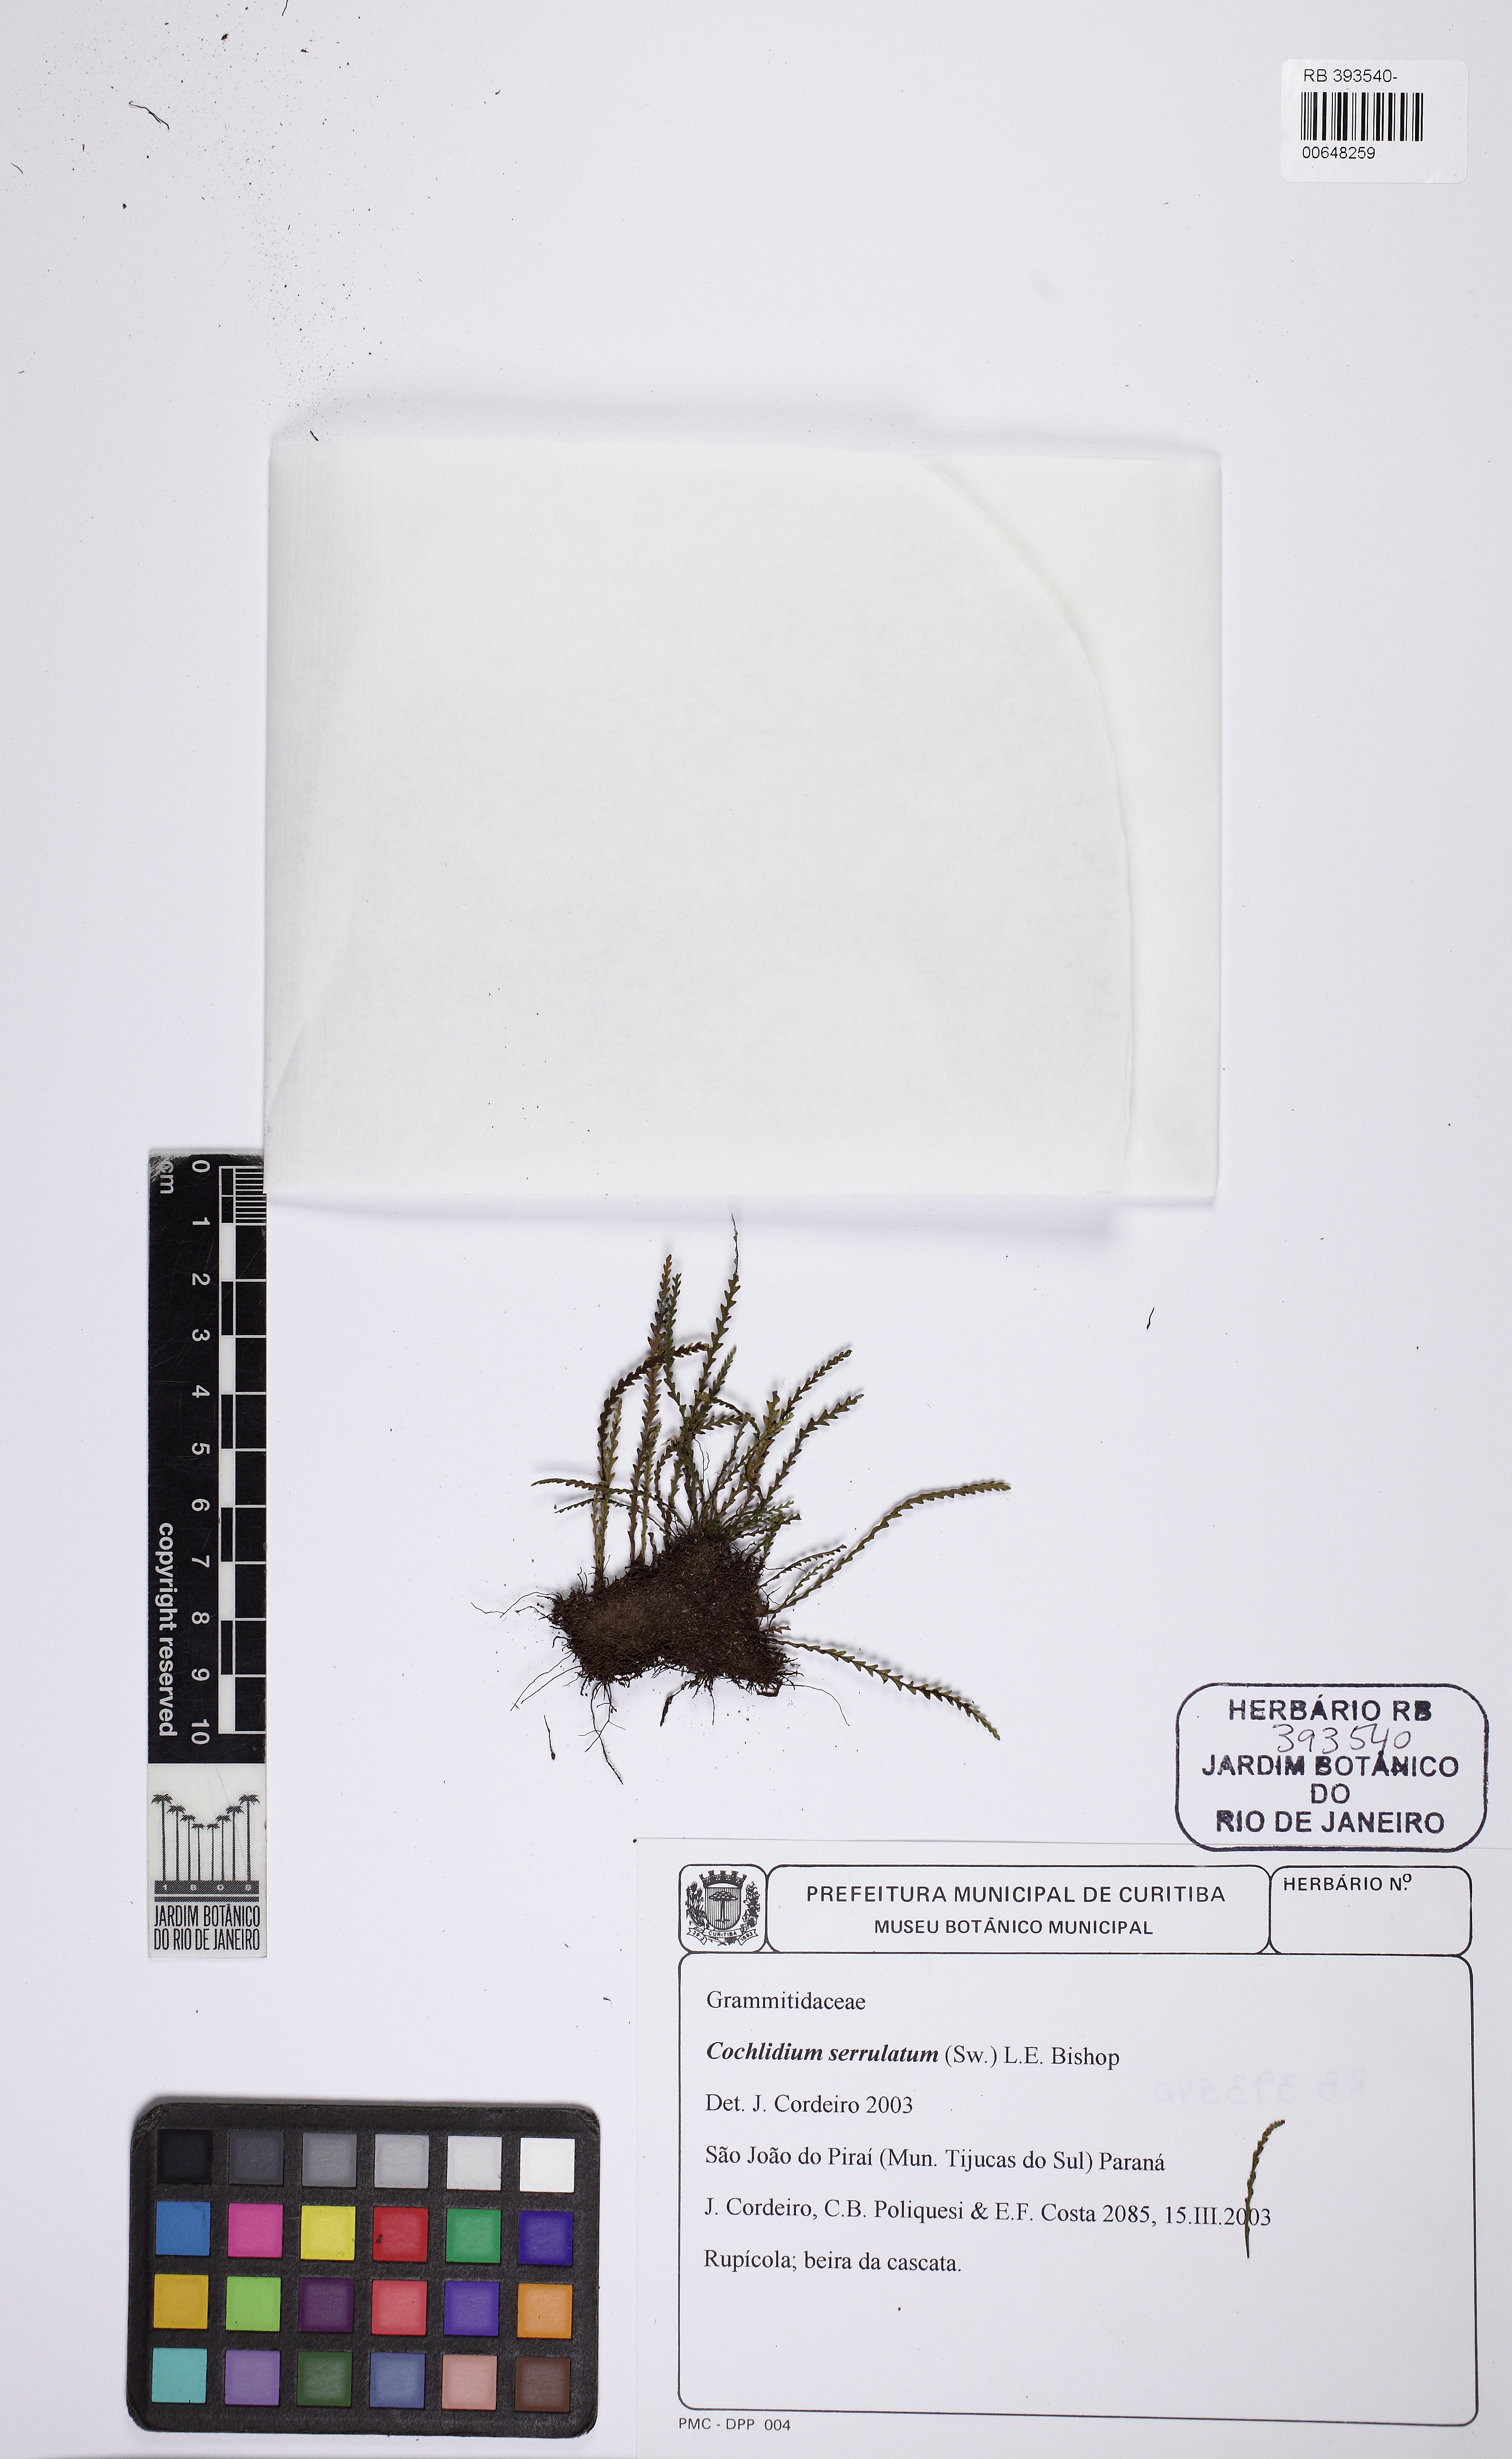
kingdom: Plantae
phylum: Tracheophyta
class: Polypodiopsida
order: Polypodiales
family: Polypodiaceae
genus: Cochlidium
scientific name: Cochlidium serrulatum
